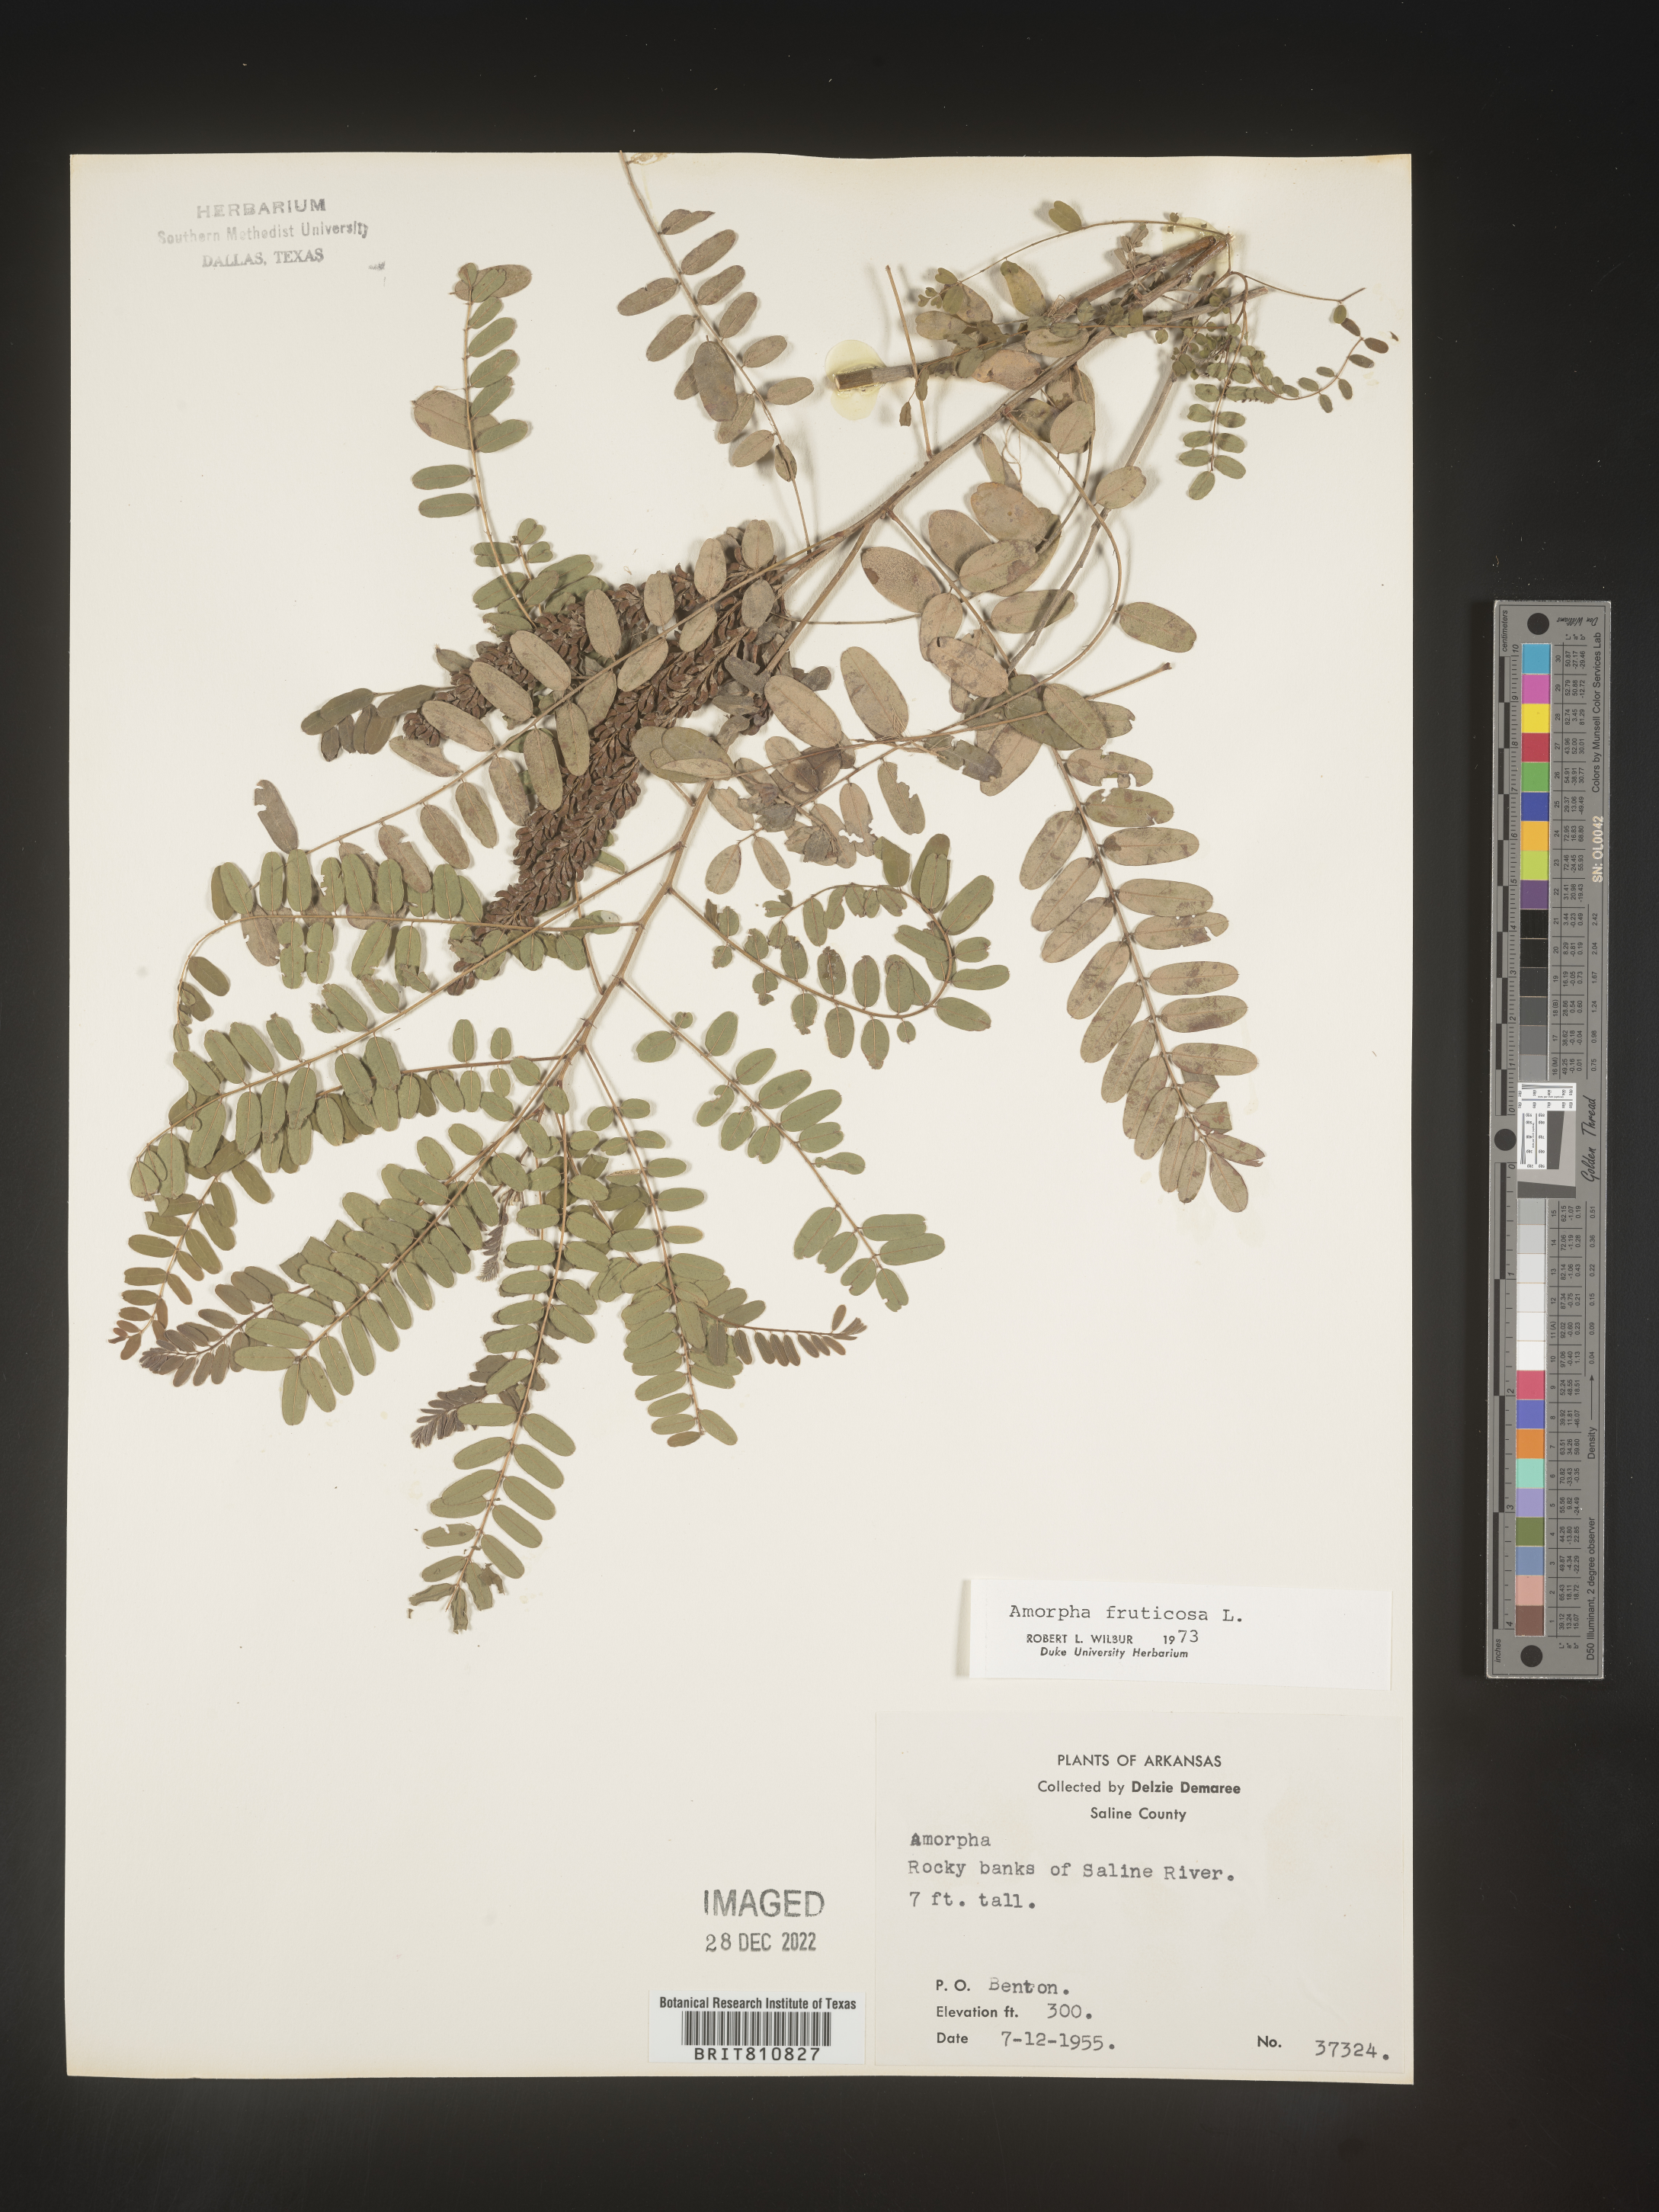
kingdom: Plantae
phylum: Tracheophyta
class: Magnoliopsida
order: Fabales
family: Fabaceae
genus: Amorpha
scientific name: Amorpha fruticosa
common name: False indigo
